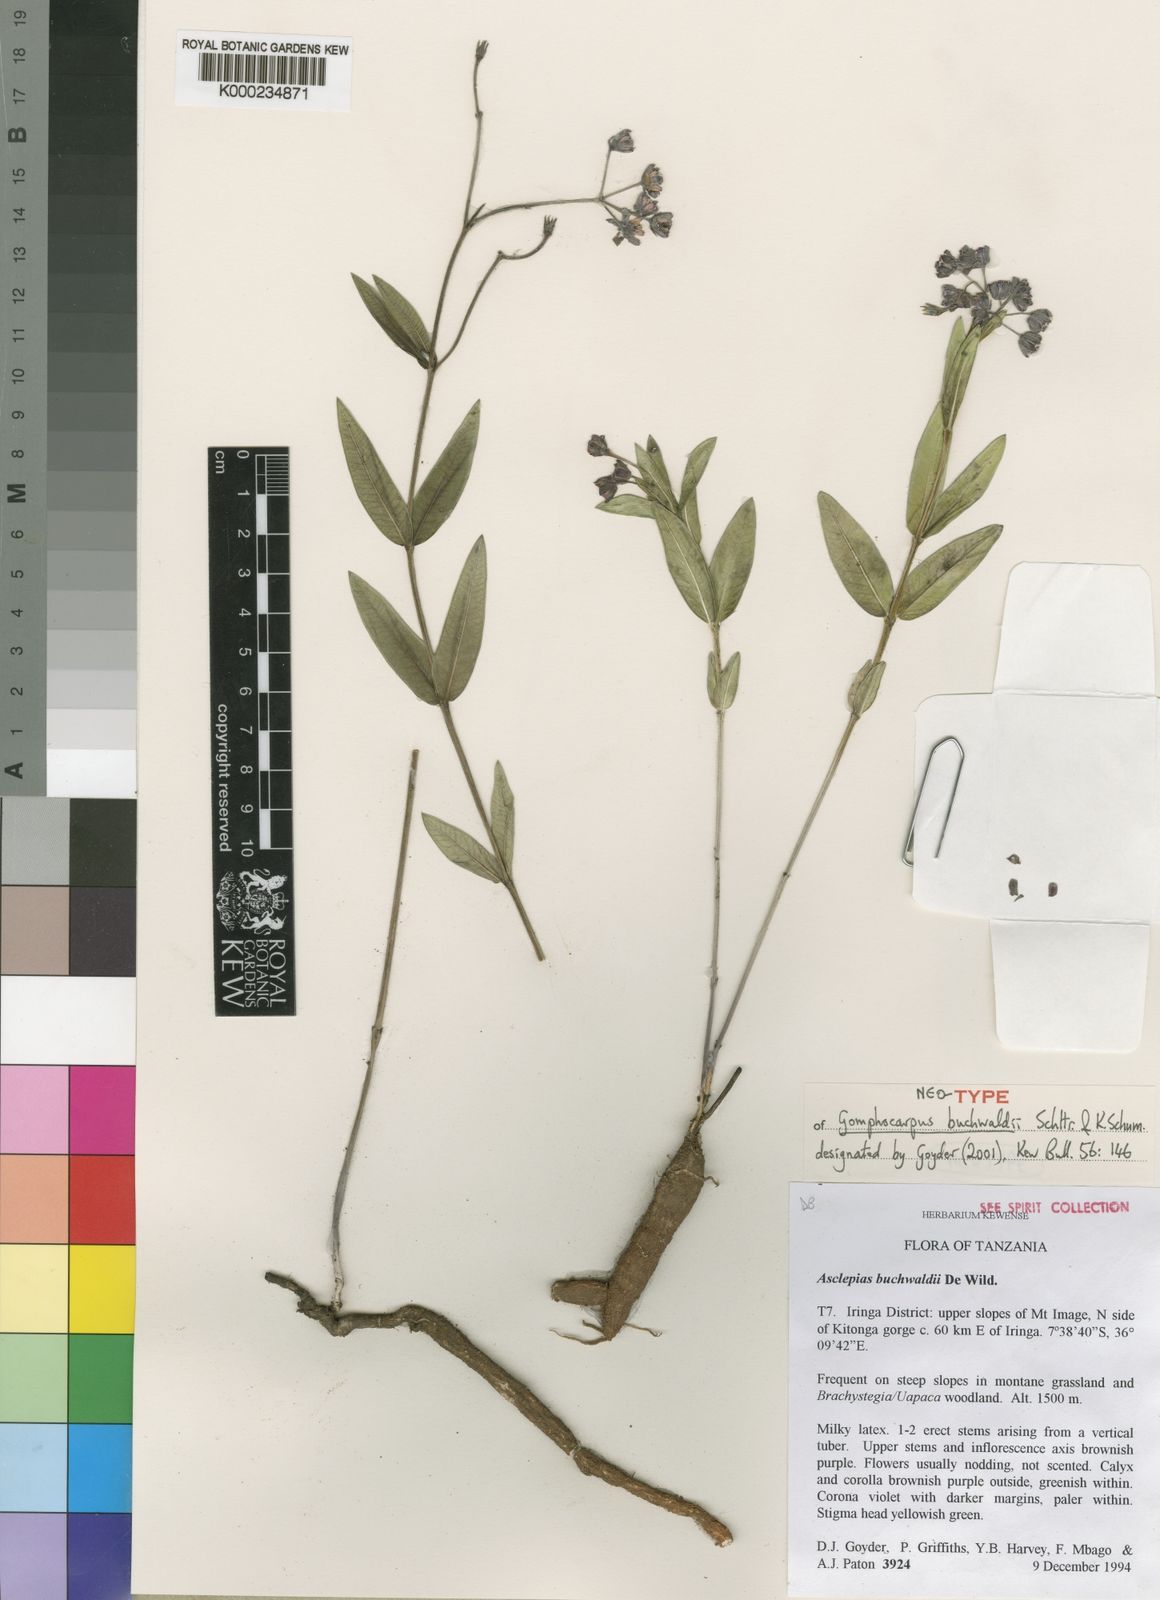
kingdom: Plantae
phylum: Tracheophyta
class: Magnoliopsida
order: Gentianales
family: Apocynaceae
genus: Asclepias
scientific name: Asclepias buchwaldii
